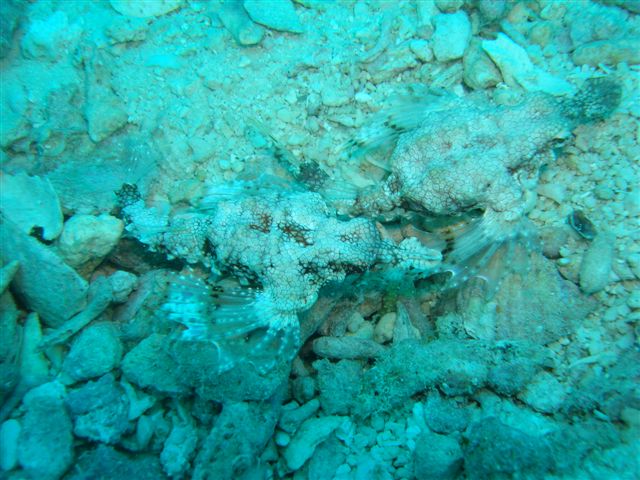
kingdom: Animalia
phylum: Chordata
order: Gasterosteiformes
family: Pegasidae
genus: Eurypegasus
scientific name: Eurypegasus draconis
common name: Short dragonfish
